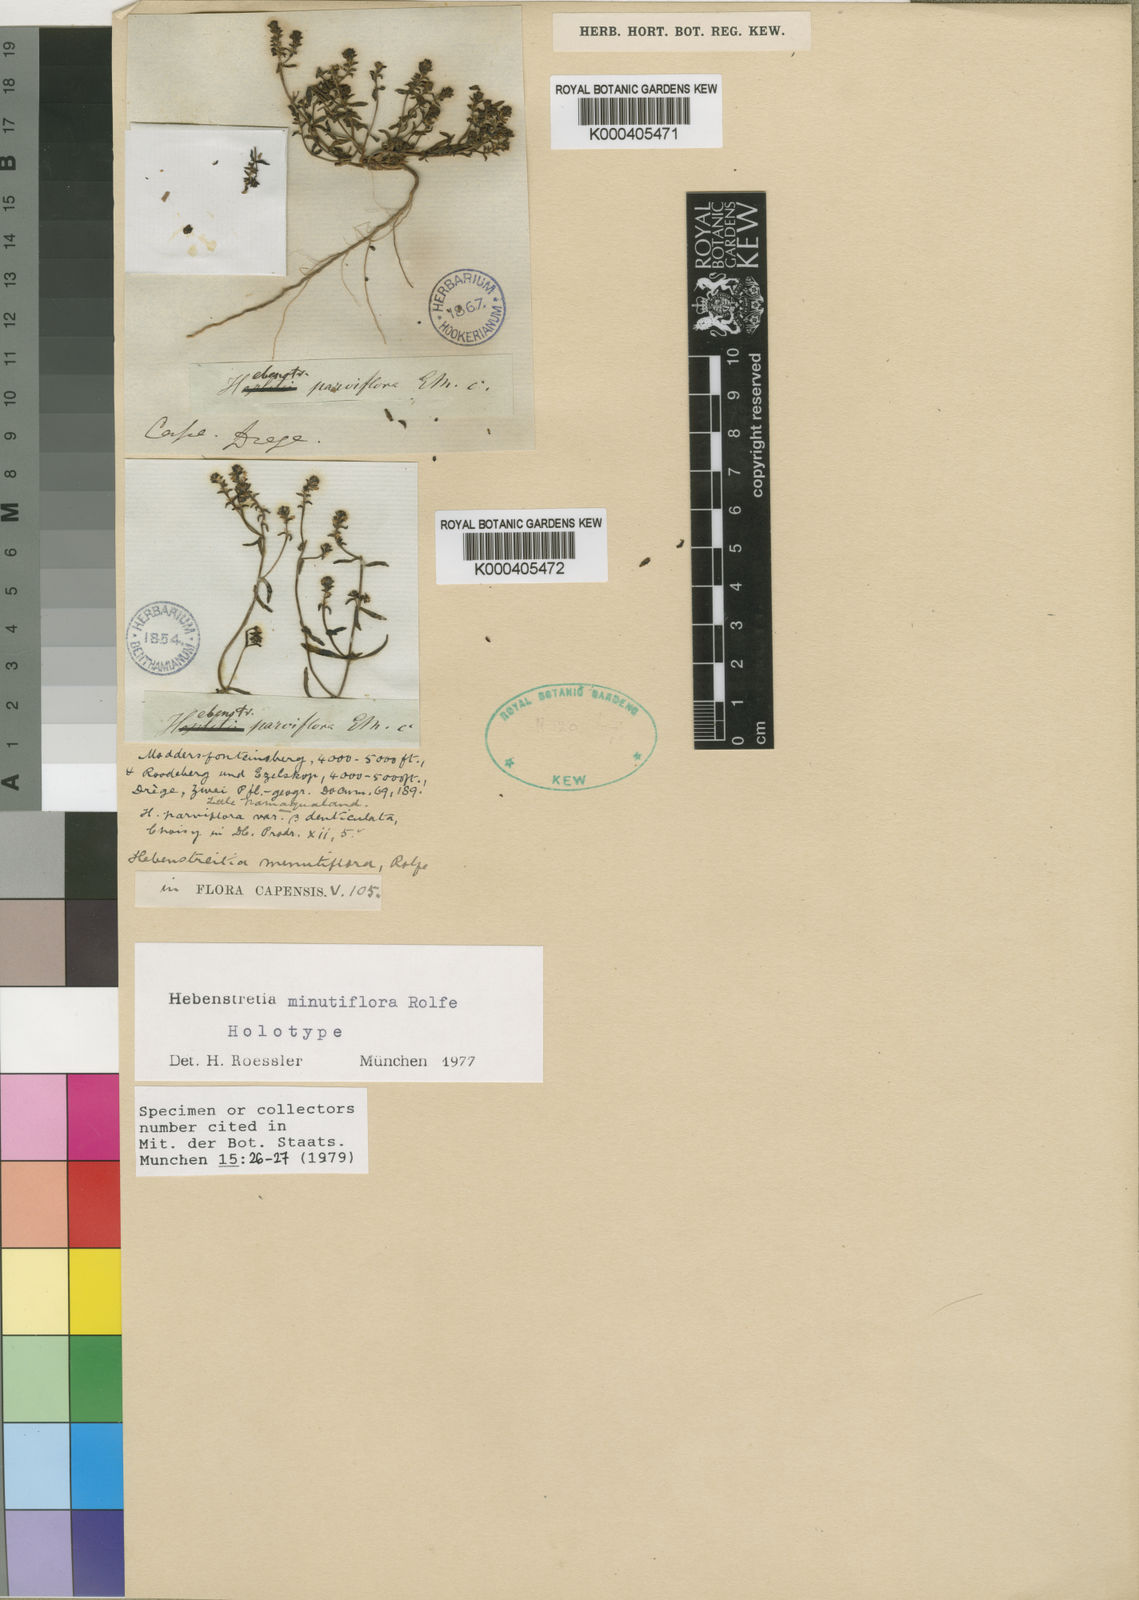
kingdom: Plantae
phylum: Tracheophyta
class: Magnoliopsida
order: Lamiales
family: Scrophulariaceae
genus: Hebenstretia
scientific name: Hebenstretia minutiflora
